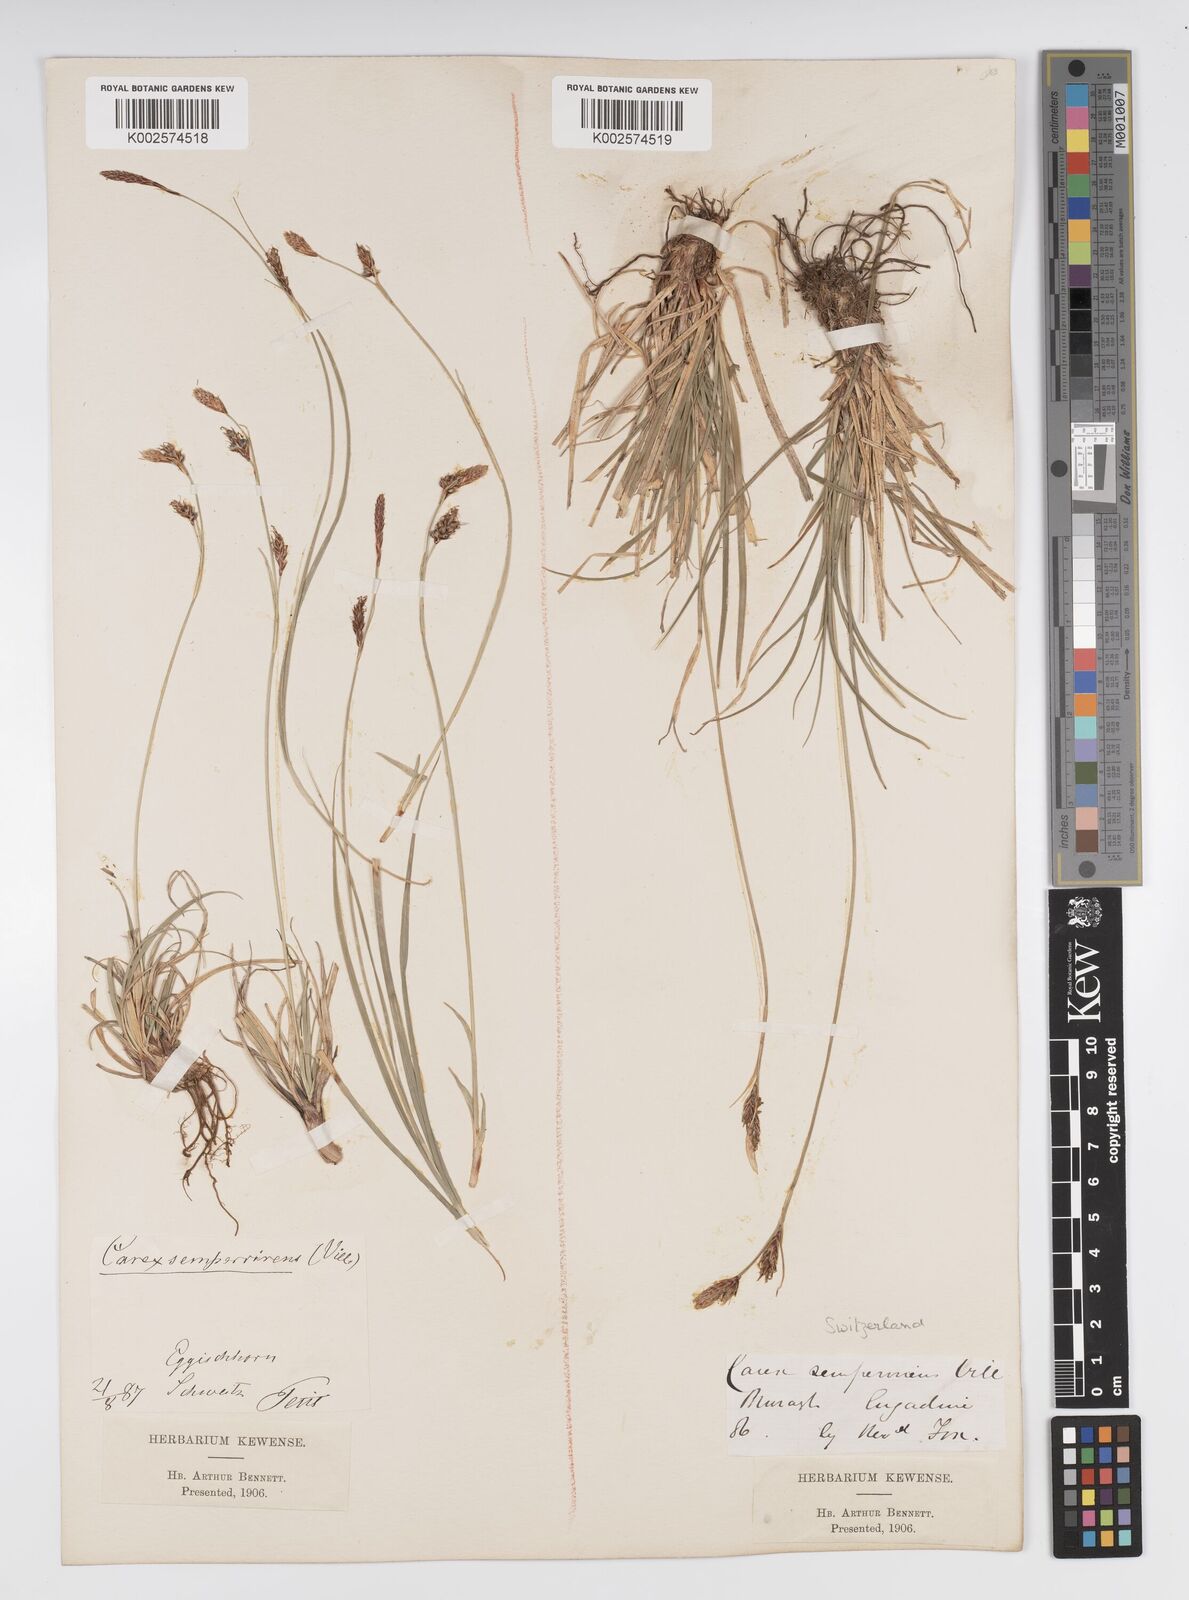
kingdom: Plantae
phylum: Tracheophyta
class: Liliopsida
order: Poales
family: Cyperaceae
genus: Carex
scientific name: Carex sempervirens
